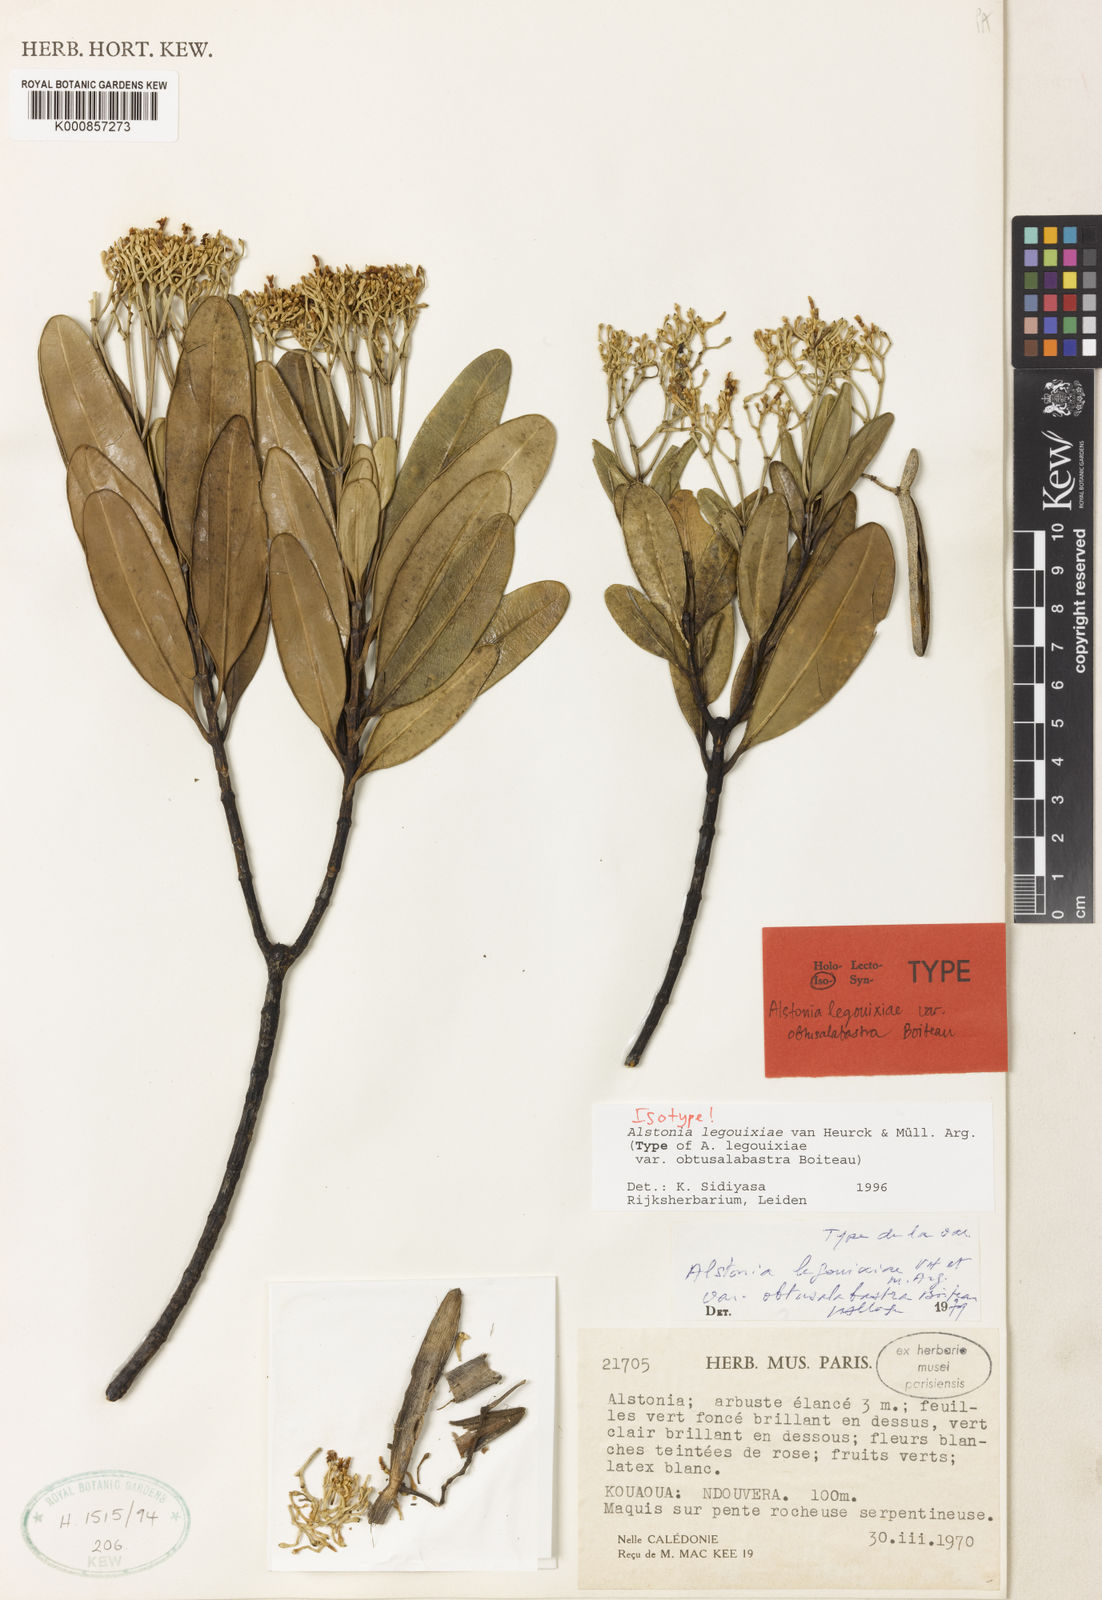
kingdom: Plantae
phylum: Tracheophyta
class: Magnoliopsida
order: Gentianales
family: Apocynaceae
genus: Alstonia
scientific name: Alstonia
